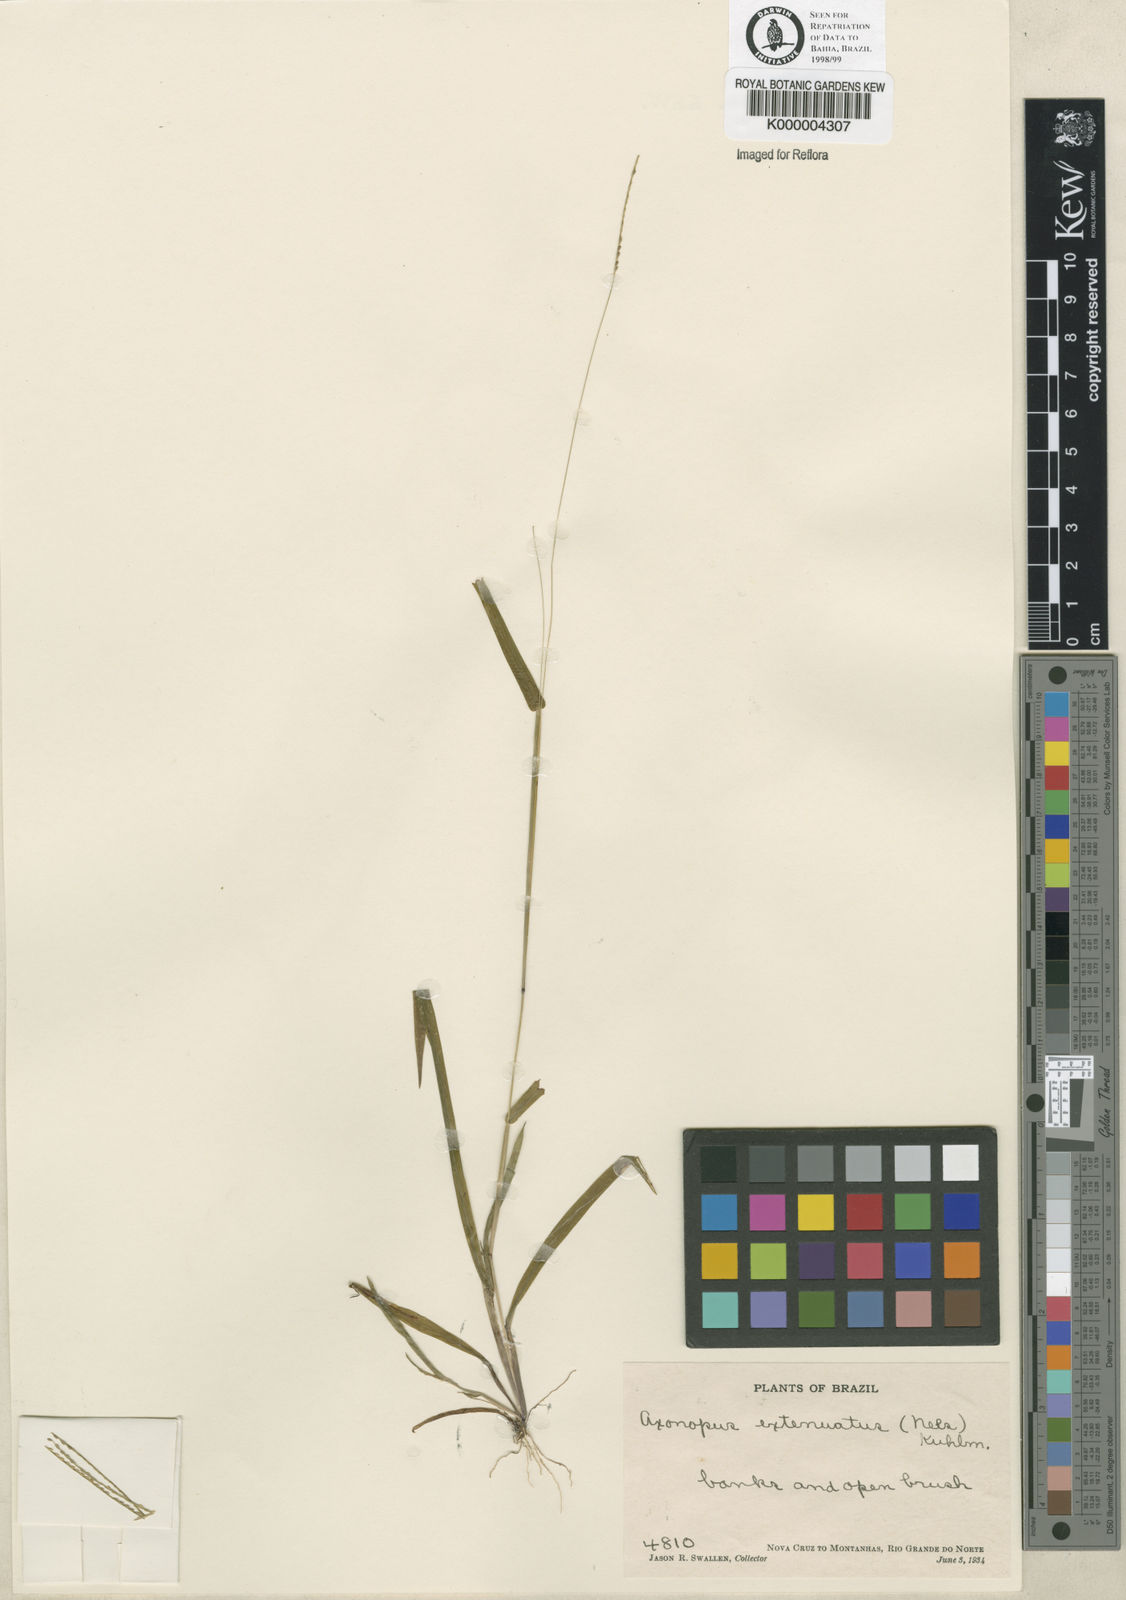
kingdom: Plantae
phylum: Tracheophyta
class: Liliopsida
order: Poales
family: Poaceae
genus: Axonopus
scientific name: Axonopus capillaris
